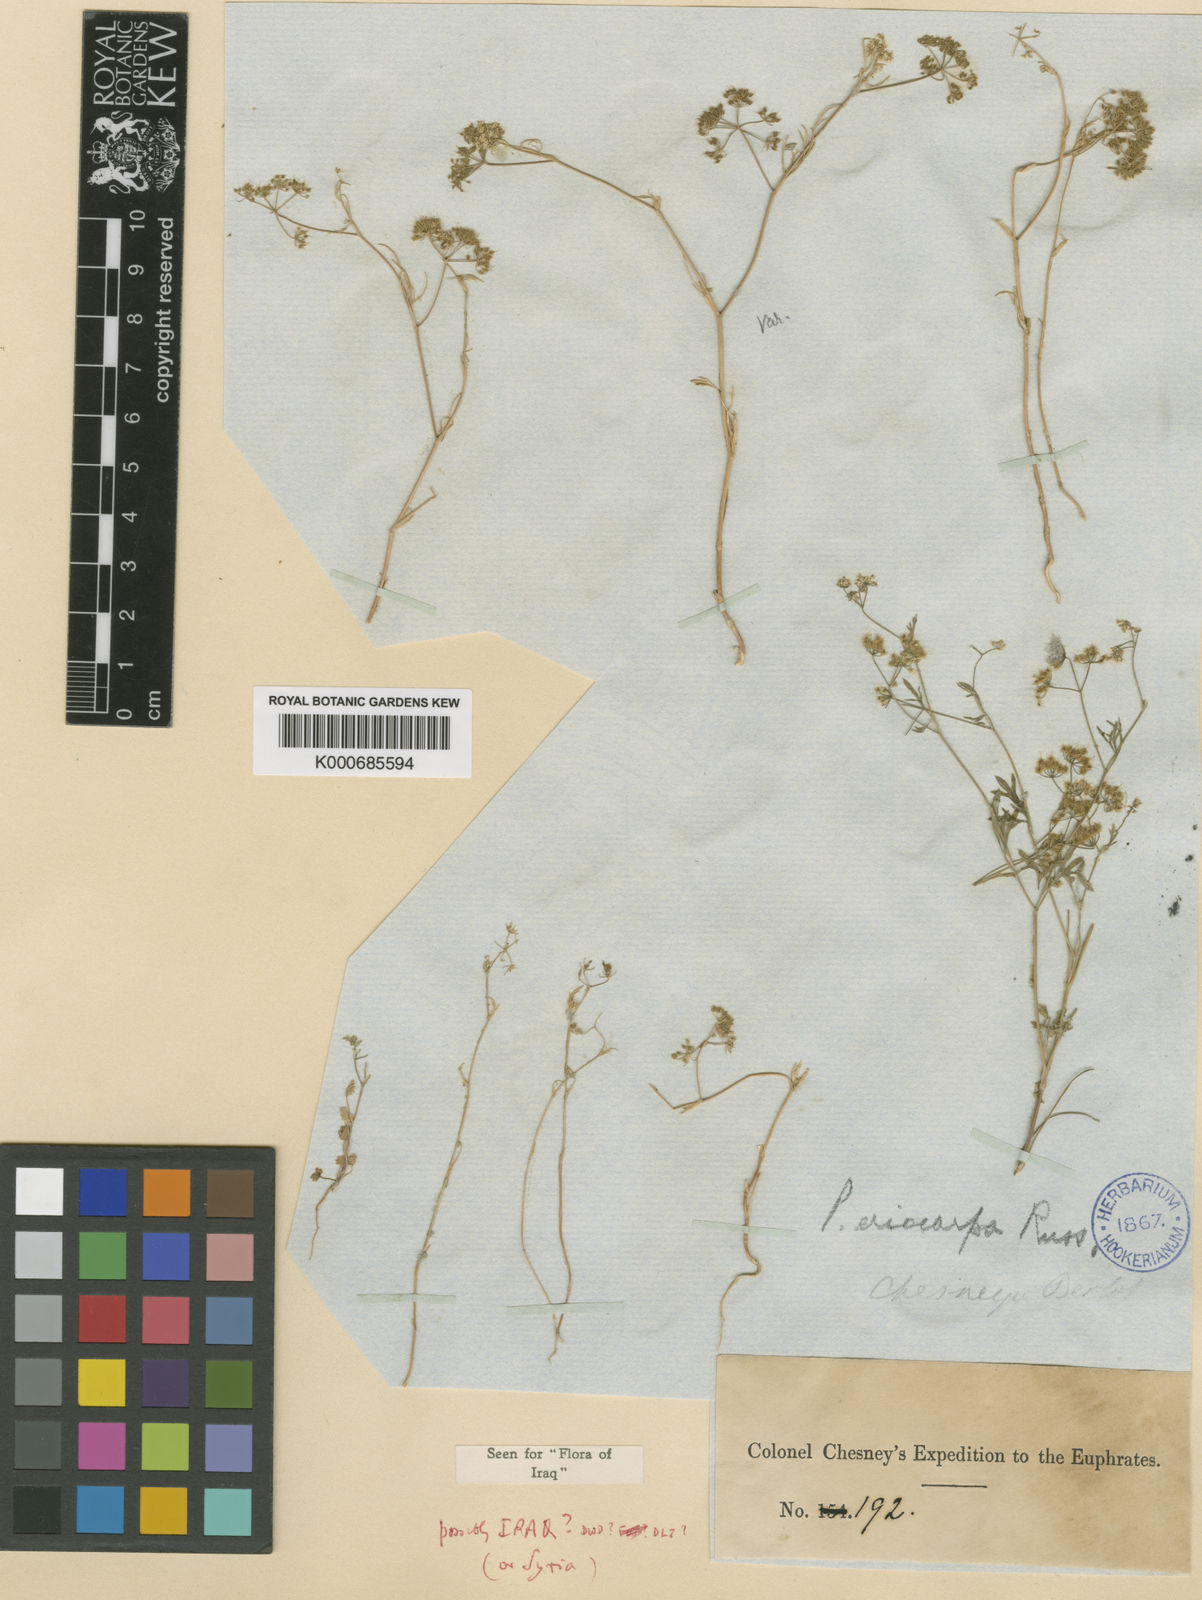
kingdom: Plantae
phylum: Tracheophyta
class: Magnoliopsida
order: Apiales
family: Apiaceae
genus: Pimpinella
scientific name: Pimpinella
